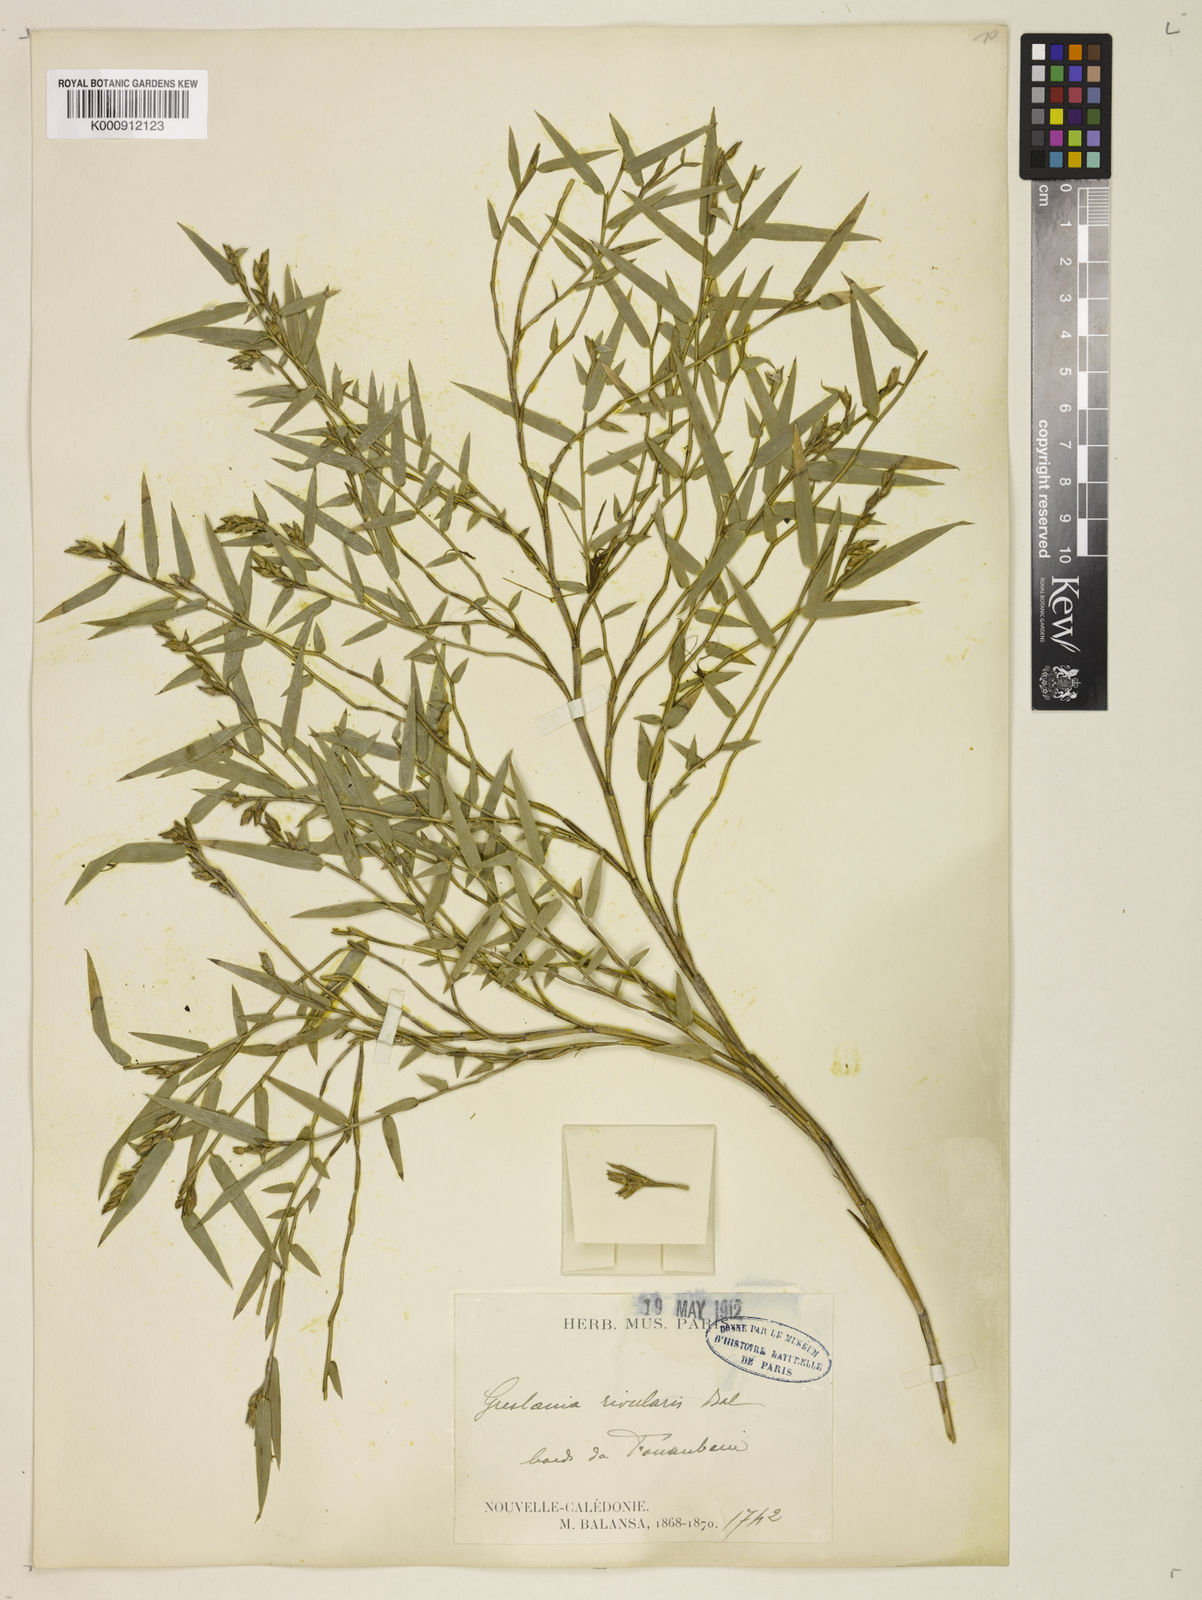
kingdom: Plantae
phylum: Tracheophyta
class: Liliopsida
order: Poales
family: Poaceae
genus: Greslania
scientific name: Greslania rivularis
